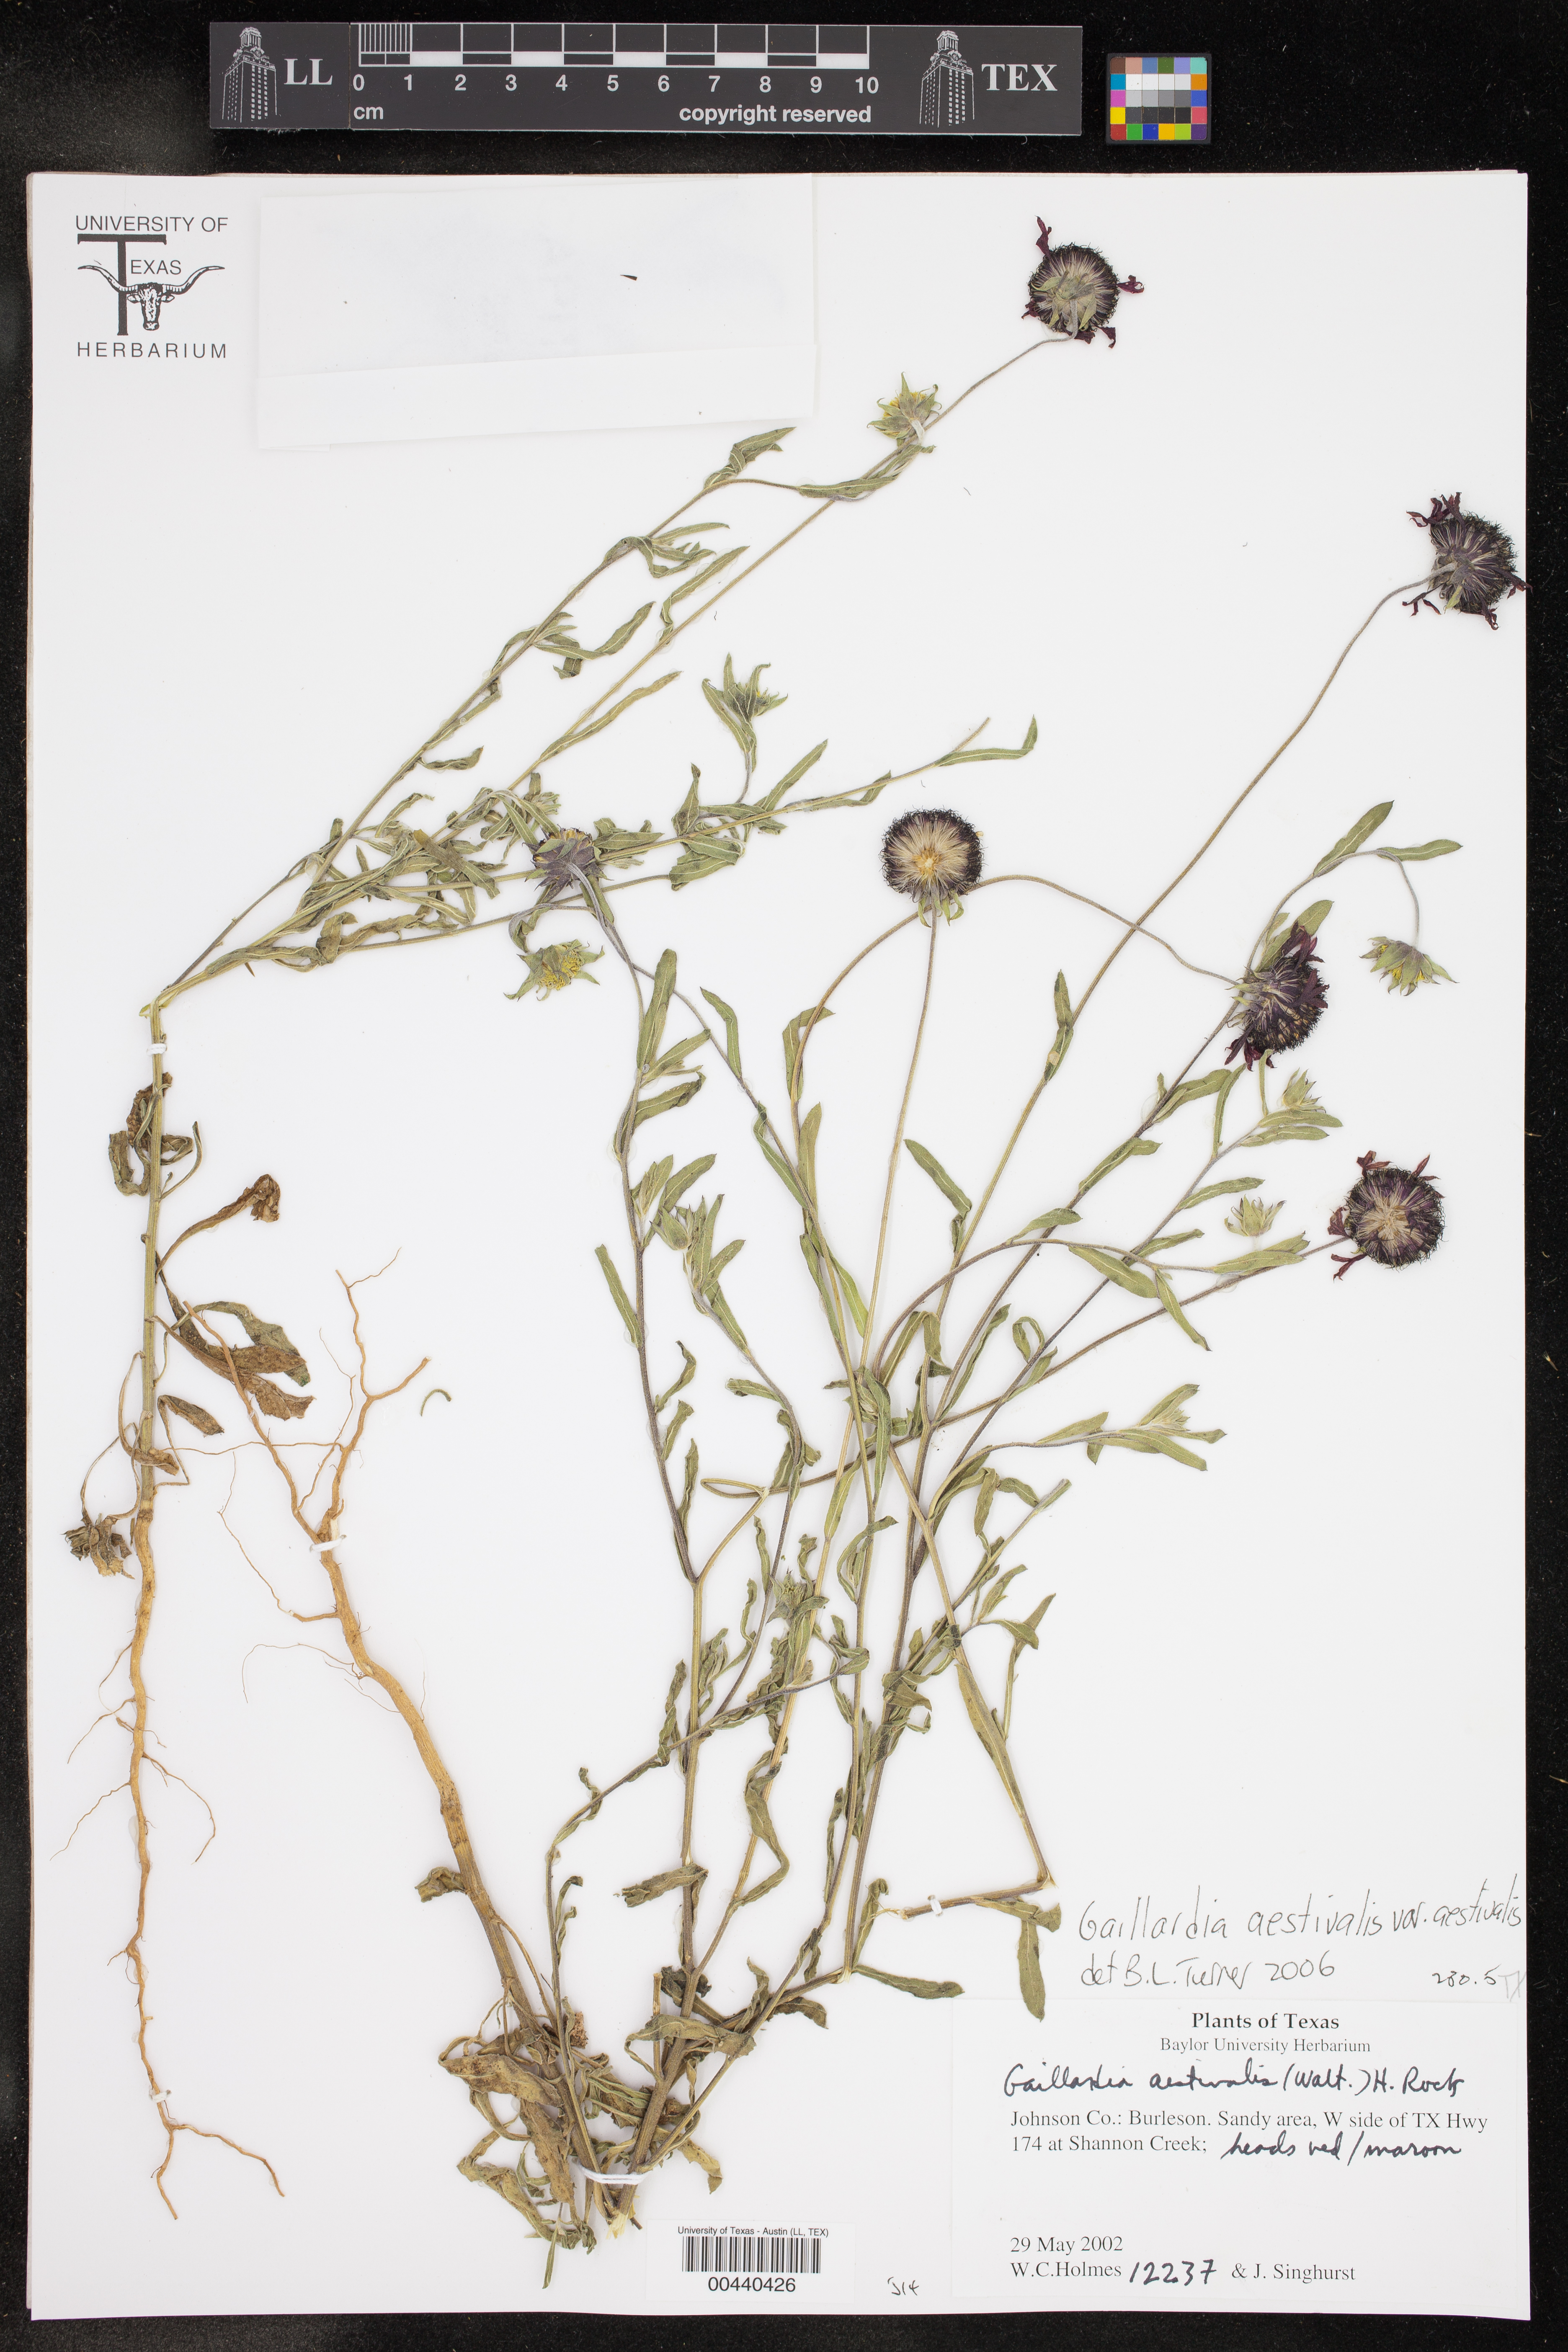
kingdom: Plantae
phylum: Tracheophyta
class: Magnoliopsida
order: Asterales
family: Asteraceae
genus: Gaillardia
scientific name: Gaillardia aestivalis
